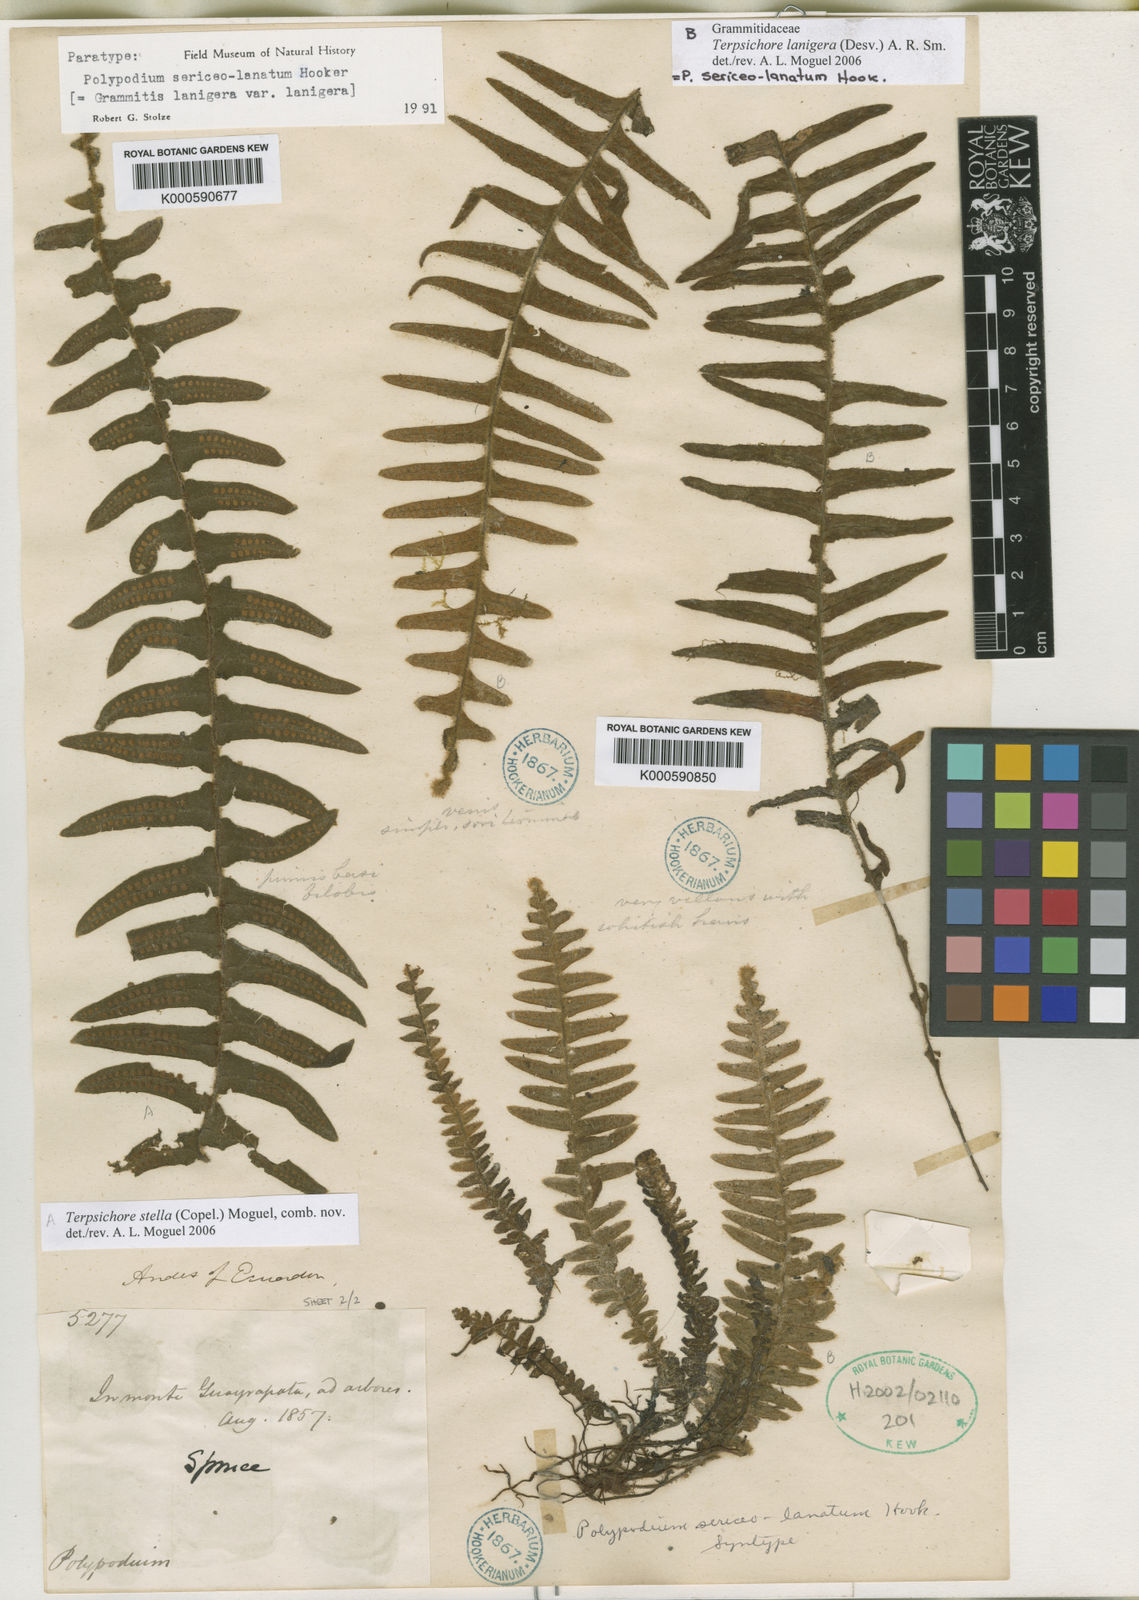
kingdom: Plantae
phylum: Tracheophyta
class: Polypodiopsida
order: Polypodiales
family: Polypodiaceae
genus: Terpsichore
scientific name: Terpsichore
